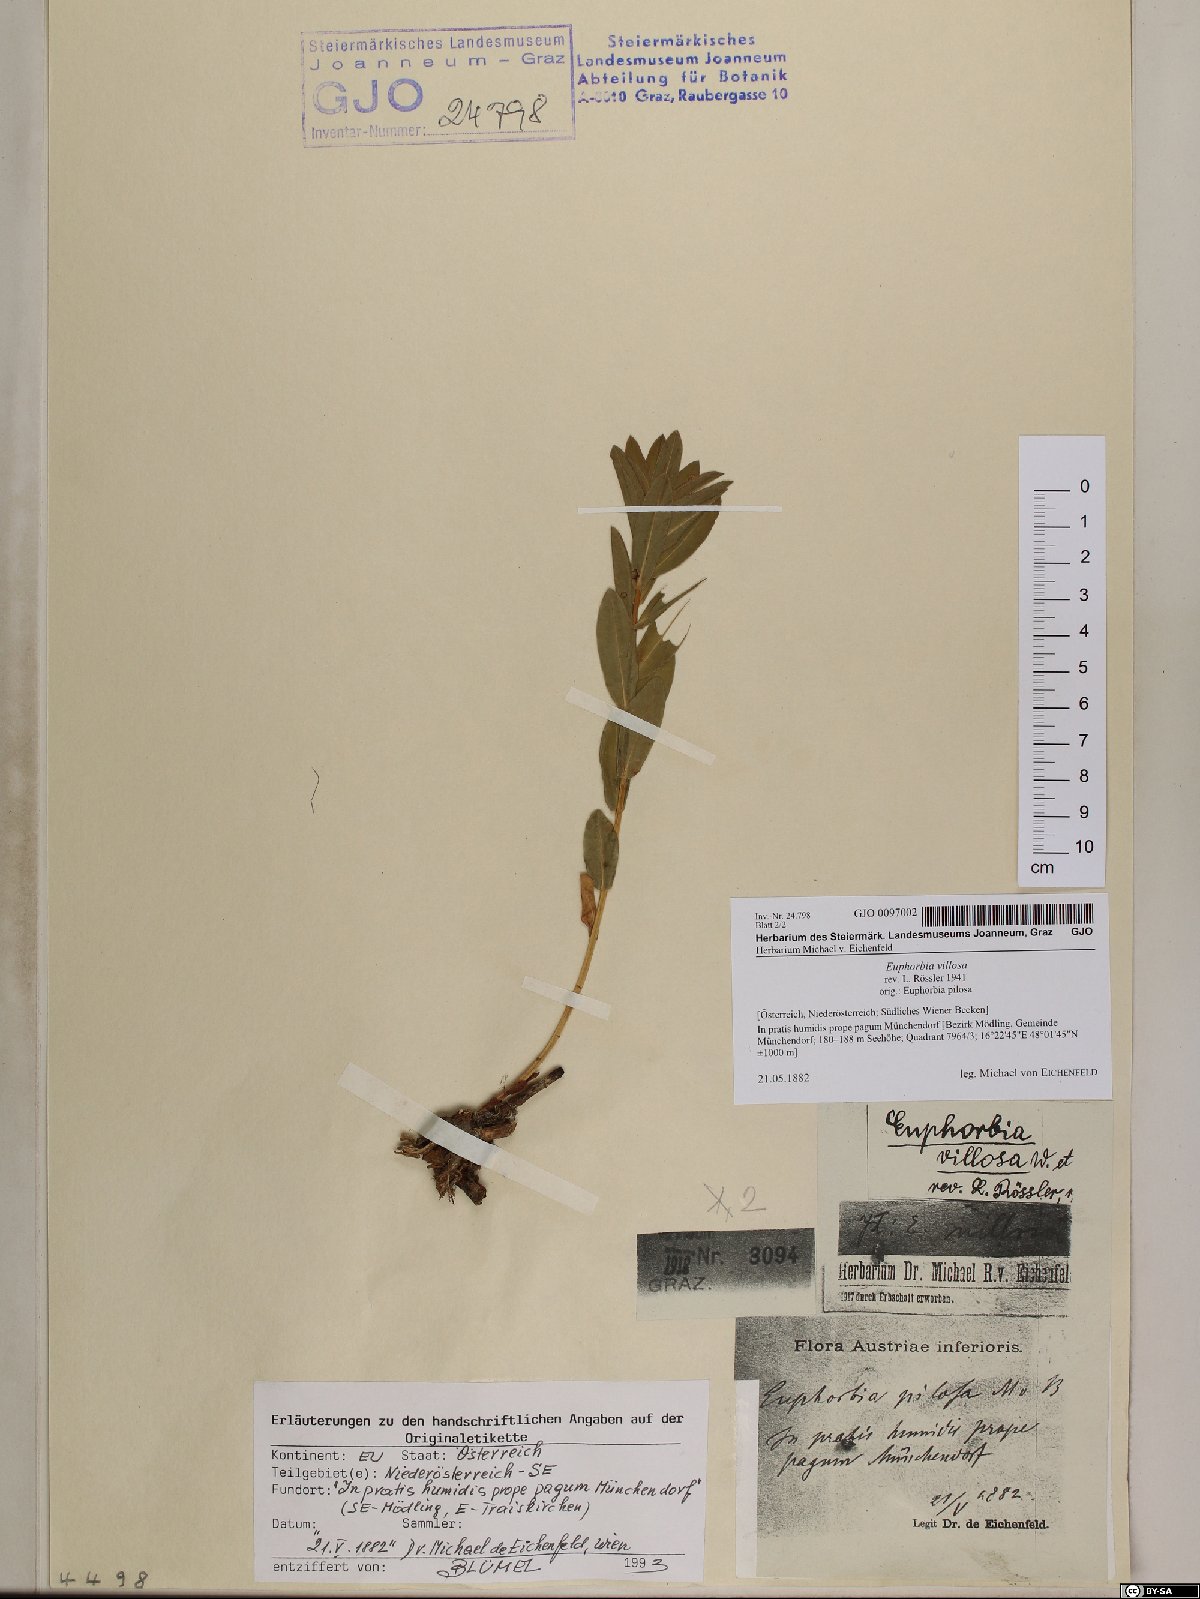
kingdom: Plantae
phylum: Tracheophyta
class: Magnoliopsida
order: Malpighiales
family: Euphorbiaceae
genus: Euphorbia
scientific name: Euphorbia illirica
